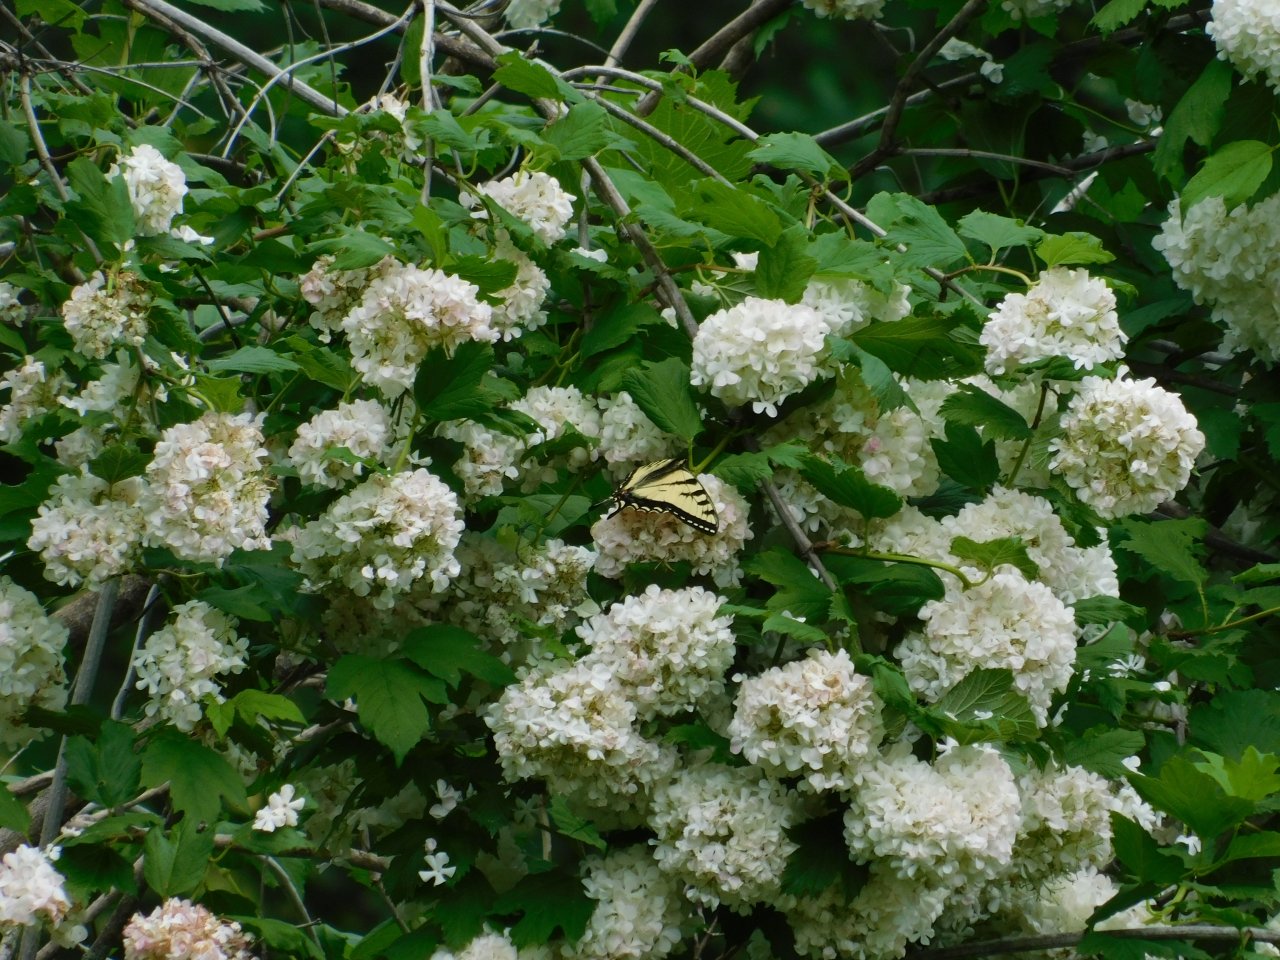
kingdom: Animalia
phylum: Arthropoda
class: Insecta
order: Lepidoptera
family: Papilionidae
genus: Pterourus
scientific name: Pterourus canadensis
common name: Canadian Tiger Swallowtail
